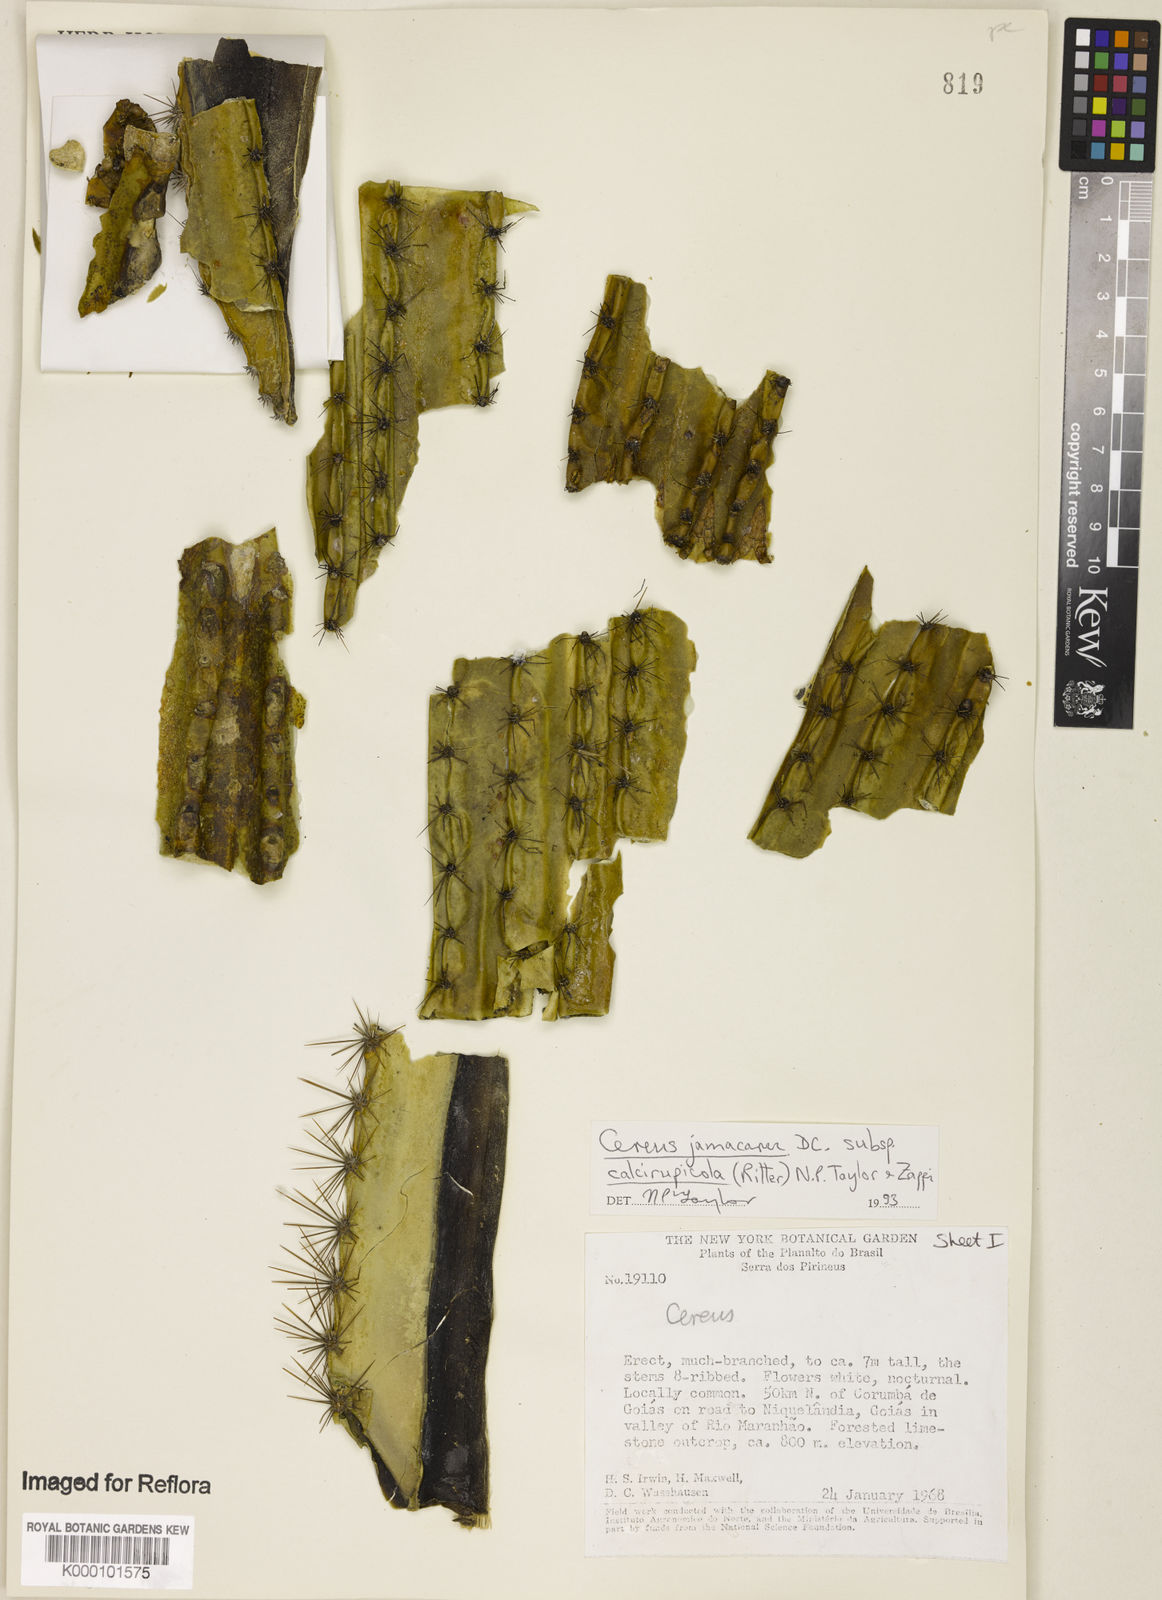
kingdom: Plantae
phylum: Tracheophyta
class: Magnoliopsida
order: Caryophyllales
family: Cactaceae
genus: Cereus
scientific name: Cereus jamacaru
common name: Queen-of-the-night
